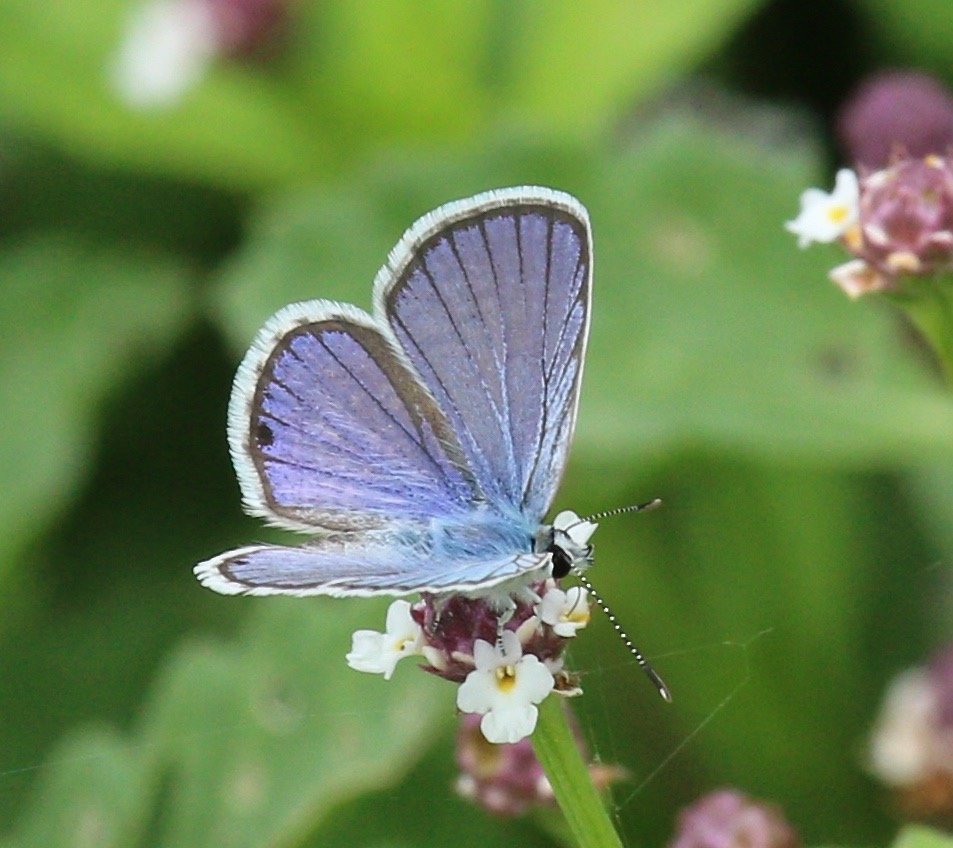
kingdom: Animalia
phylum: Arthropoda
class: Insecta
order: Lepidoptera
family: Lycaenidae
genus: Hemiargus
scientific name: Hemiargus ceraunus
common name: Ceraunus Blue
